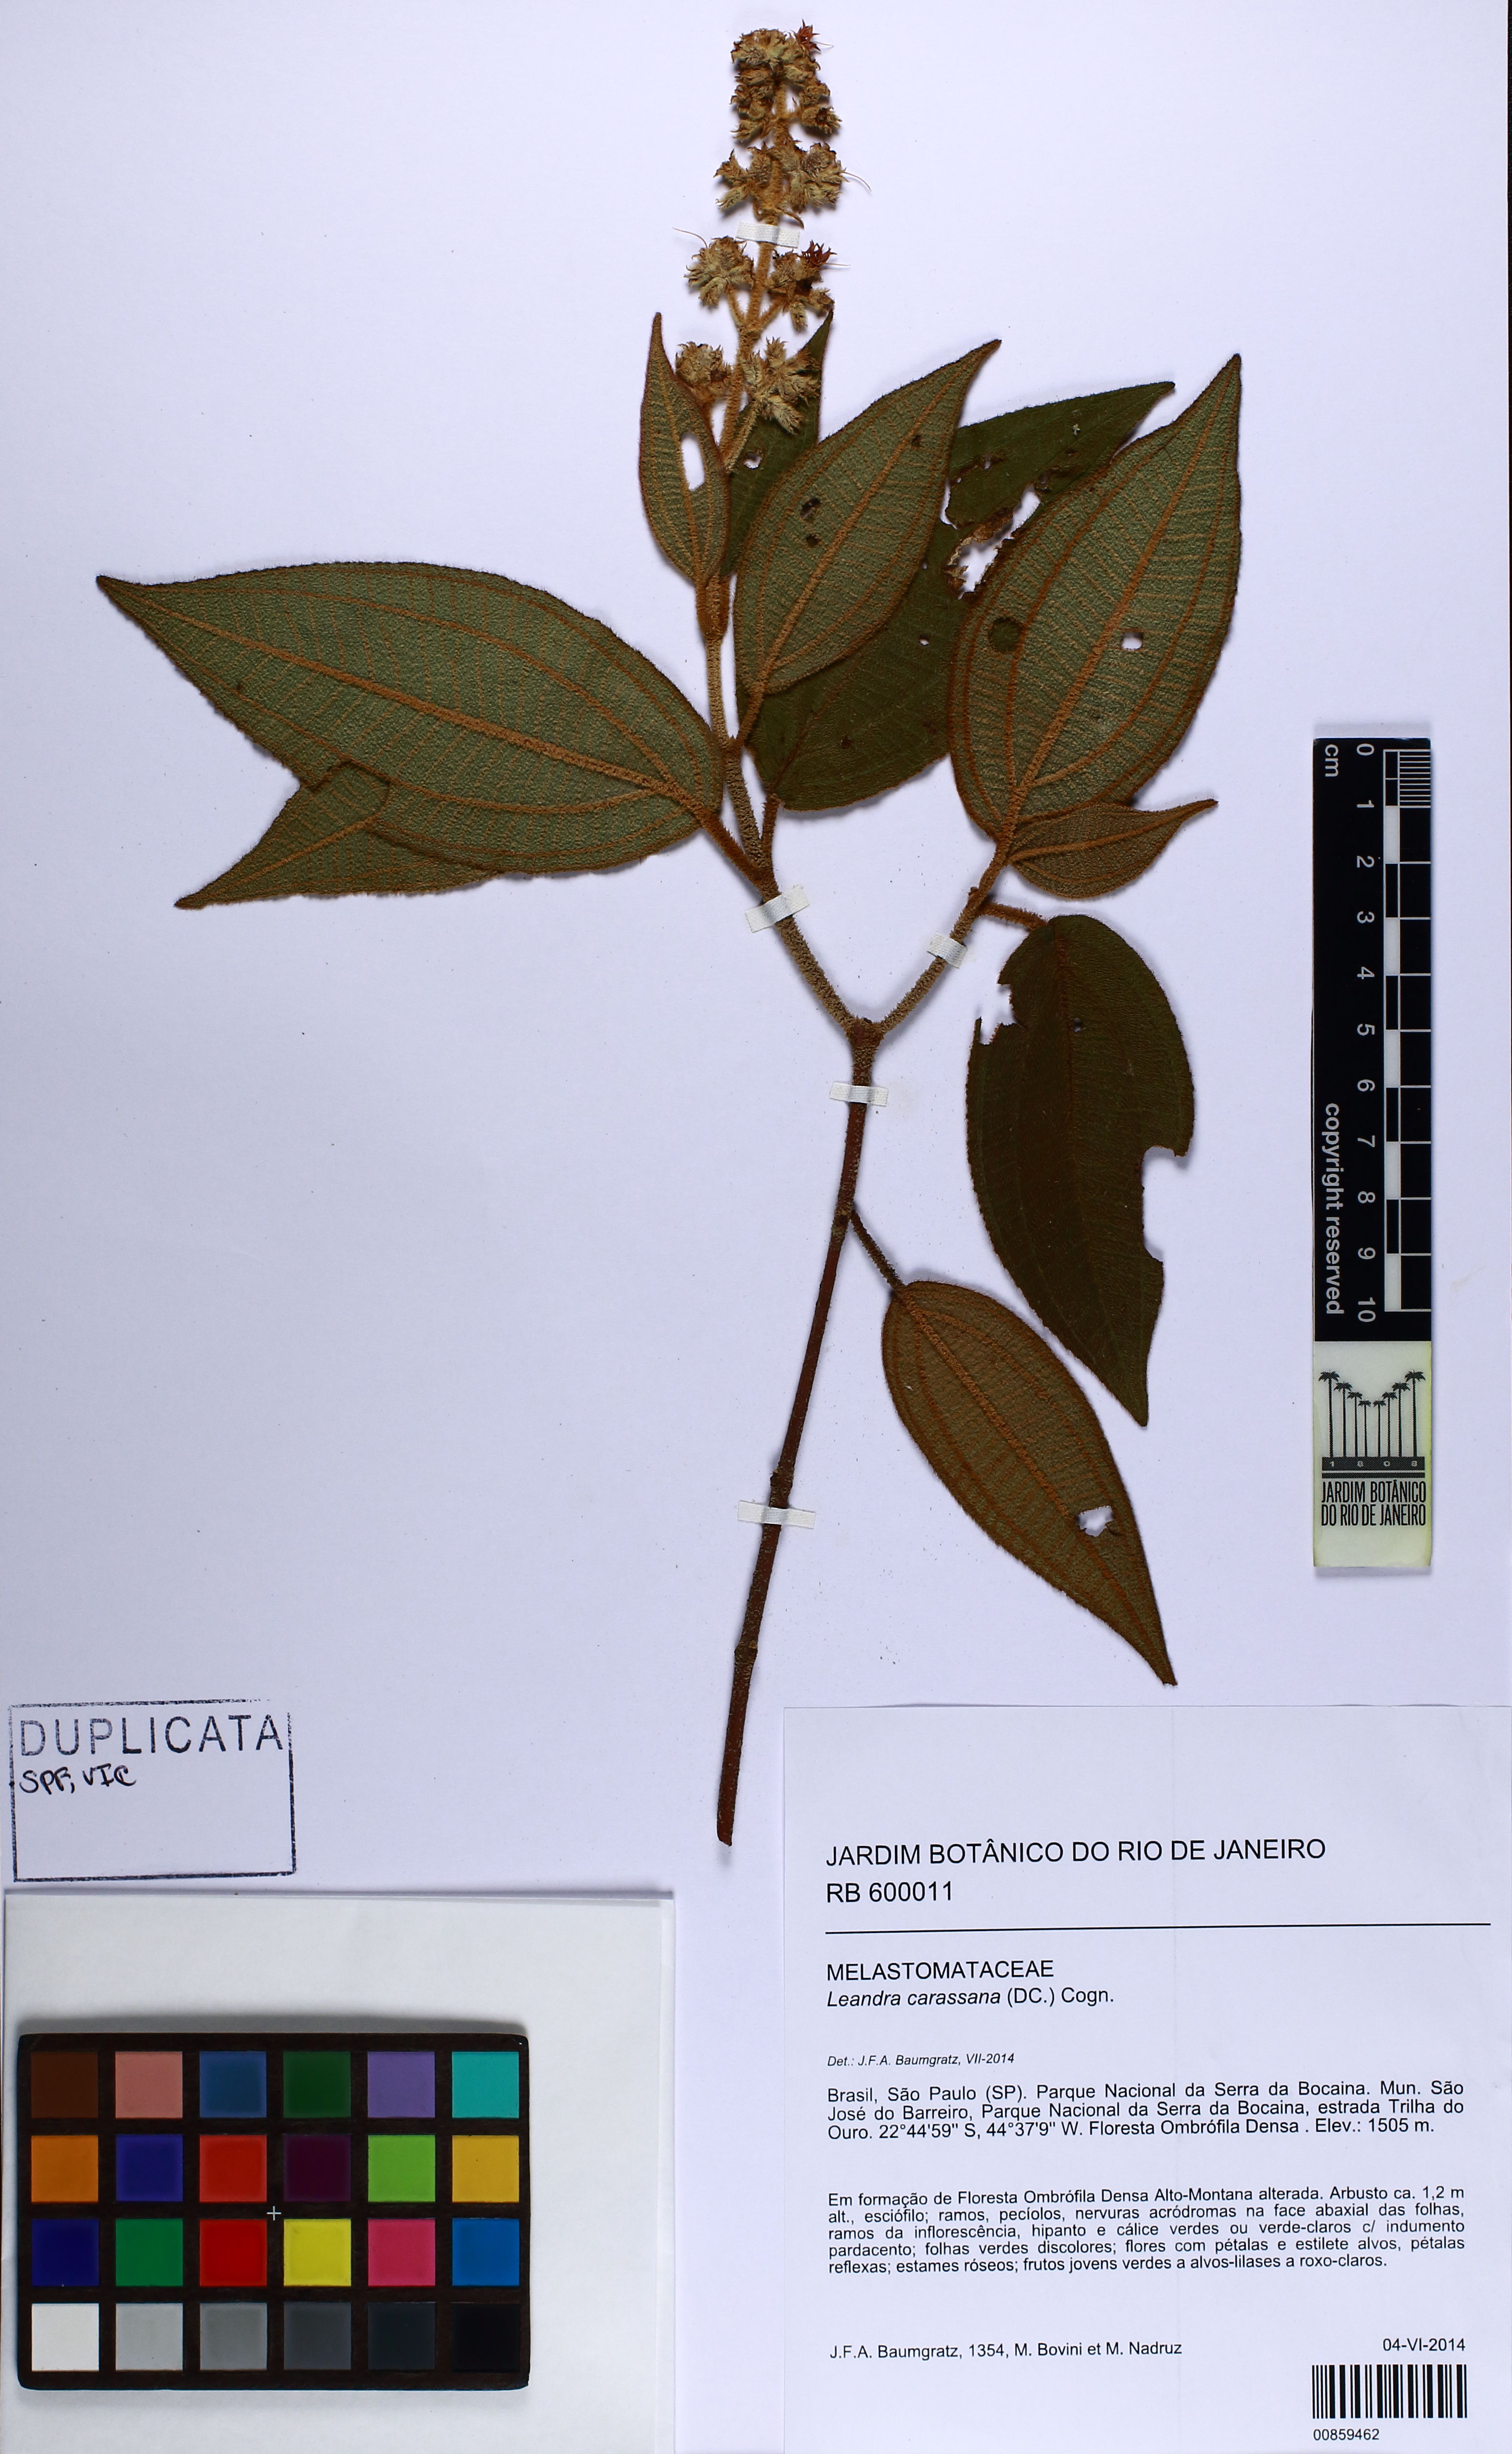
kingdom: Plantae
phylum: Tracheophyta
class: Magnoliopsida
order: Myrtales
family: Melastomataceae
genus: Miconia
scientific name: Miconia sublanata
